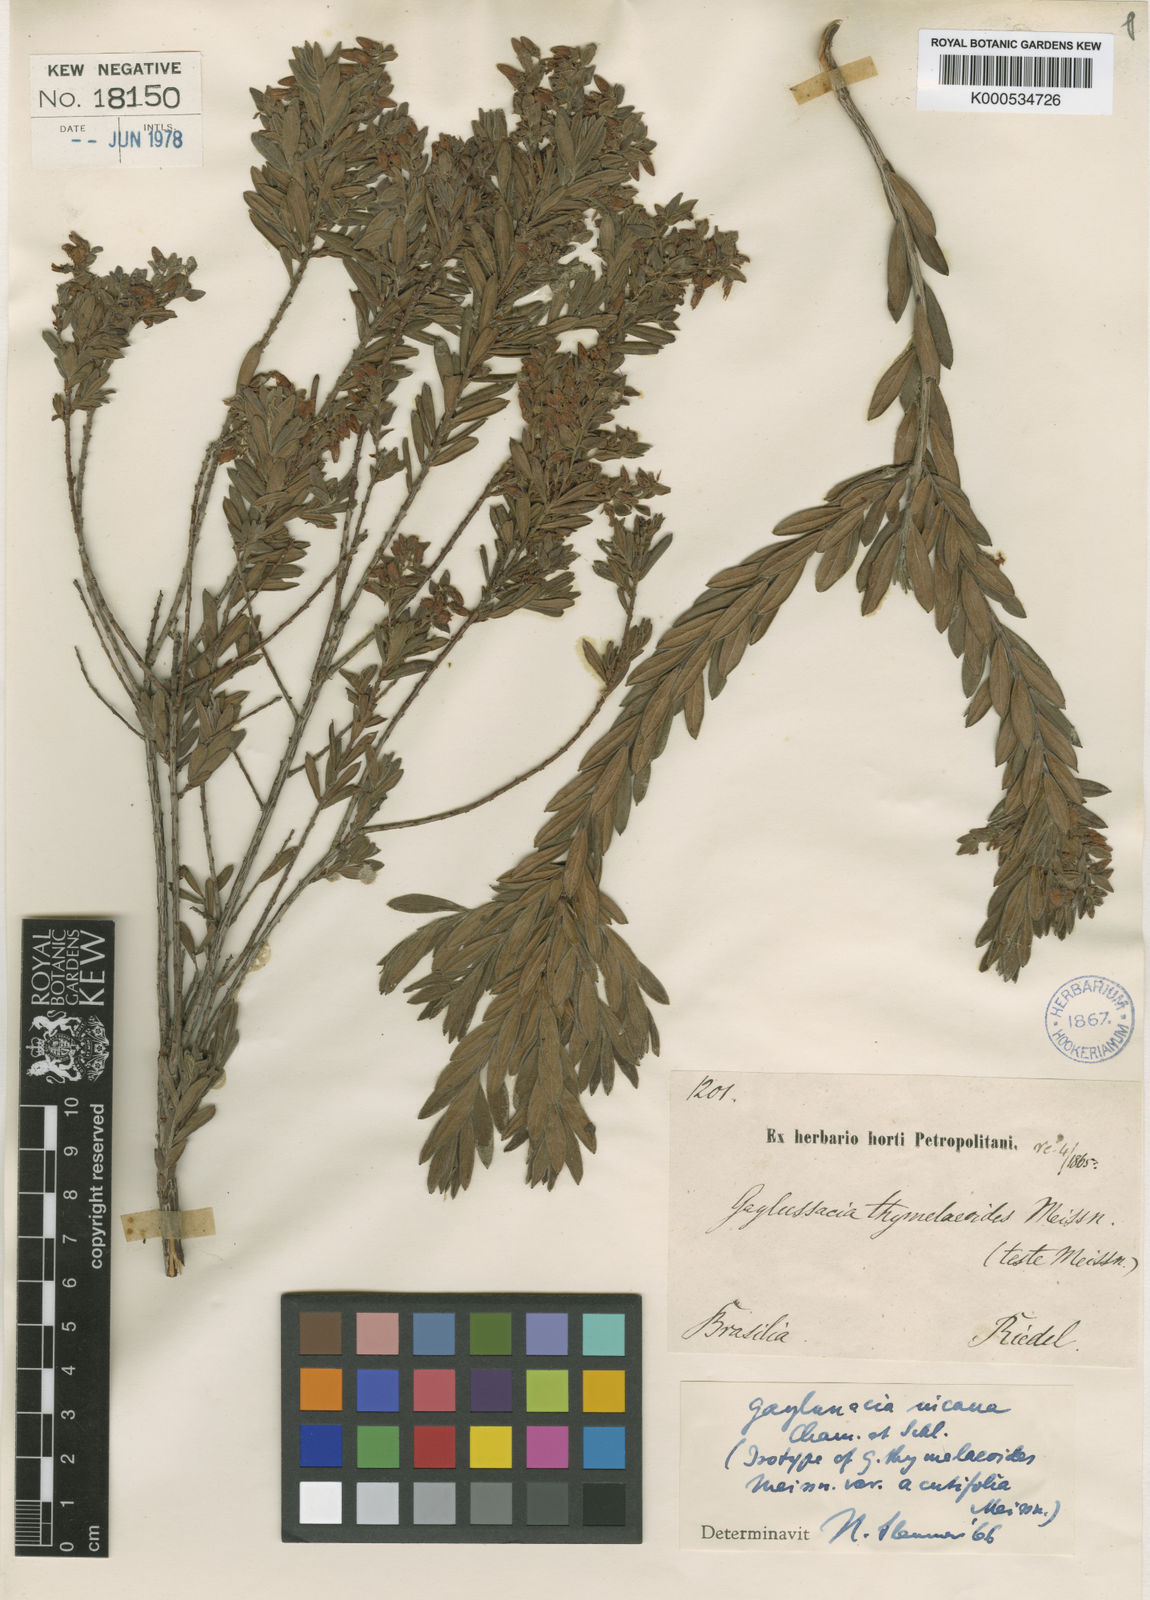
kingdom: Plantae
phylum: Tracheophyta
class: Magnoliopsida
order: Ericales
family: Ericaceae
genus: Gaylussacia
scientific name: Gaylussacia incana
